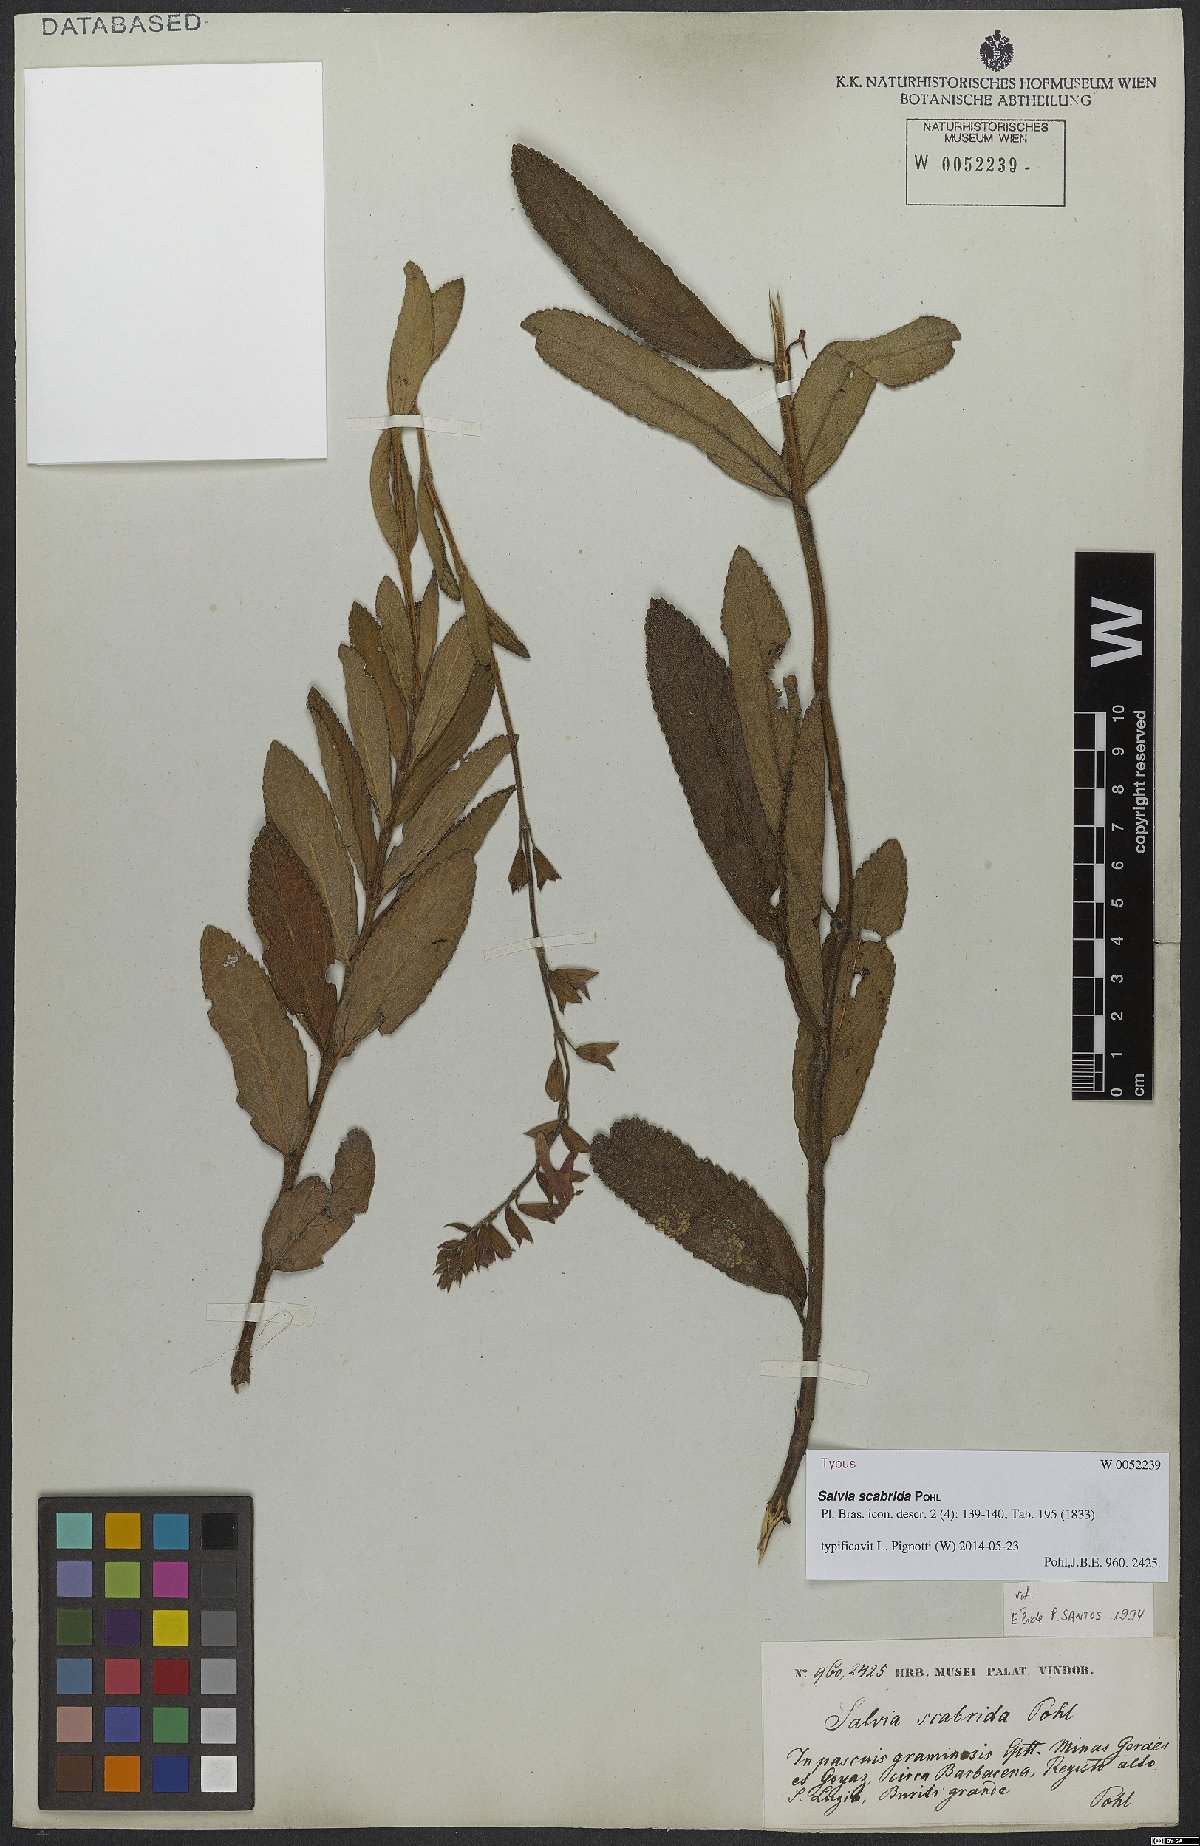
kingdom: Plantae
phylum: Tracheophyta
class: Magnoliopsida
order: Lamiales
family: Lamiaceae
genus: Salvia
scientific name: Salvia scabrida
